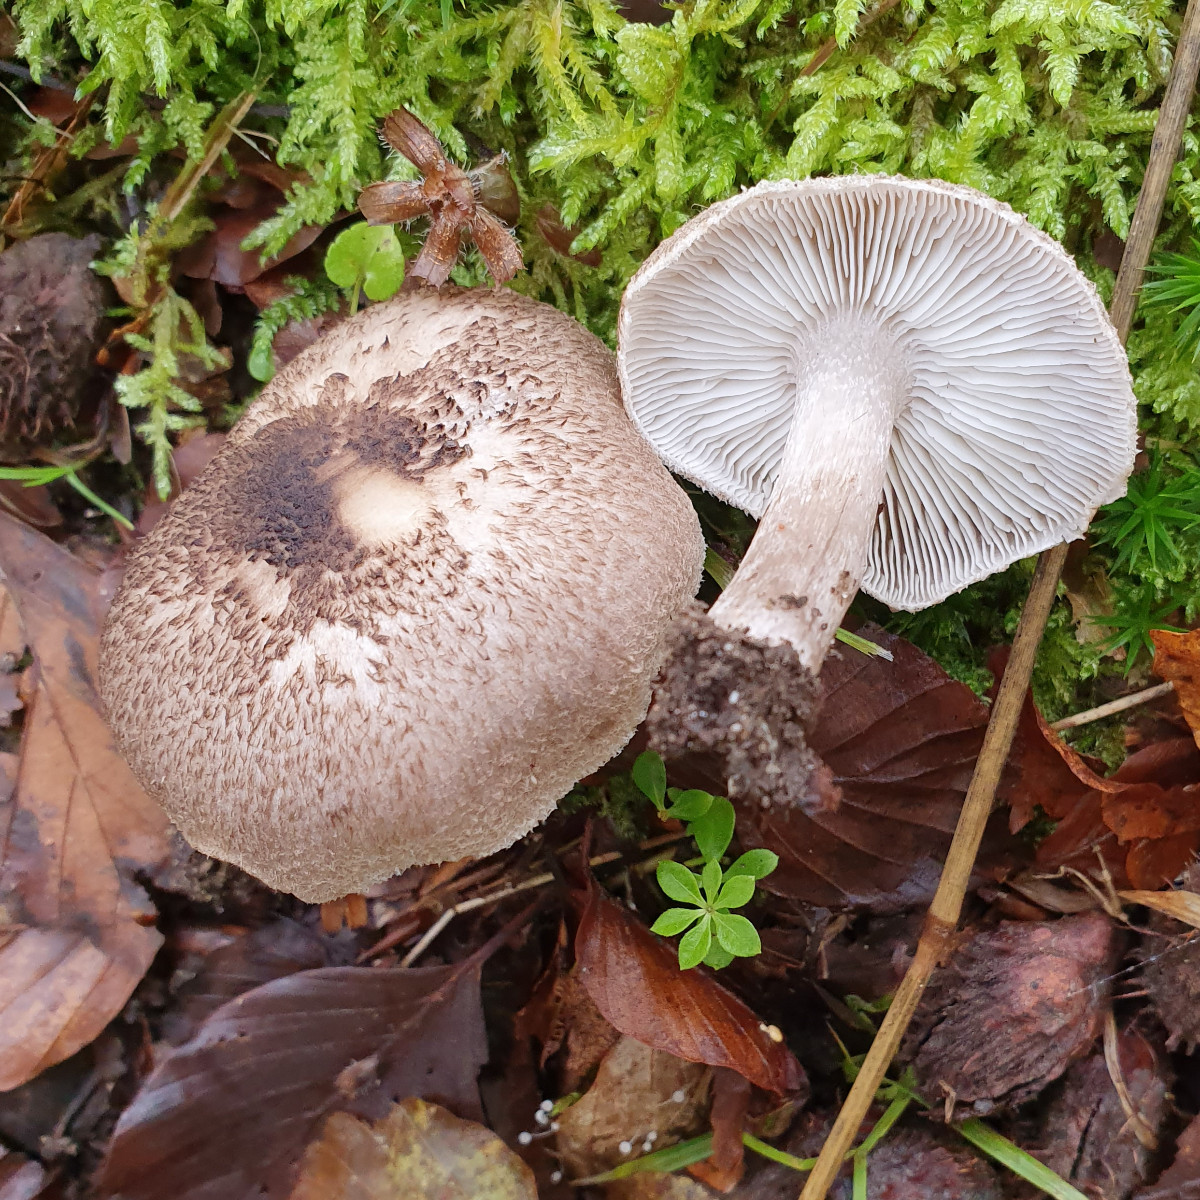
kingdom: Fungi
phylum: Basidiomycota
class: Agaricomycetes
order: Agaricales
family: Tricholomataceae
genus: Tricholoma
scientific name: Tricholoma scalpturatum
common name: gulplettet ridderhat
